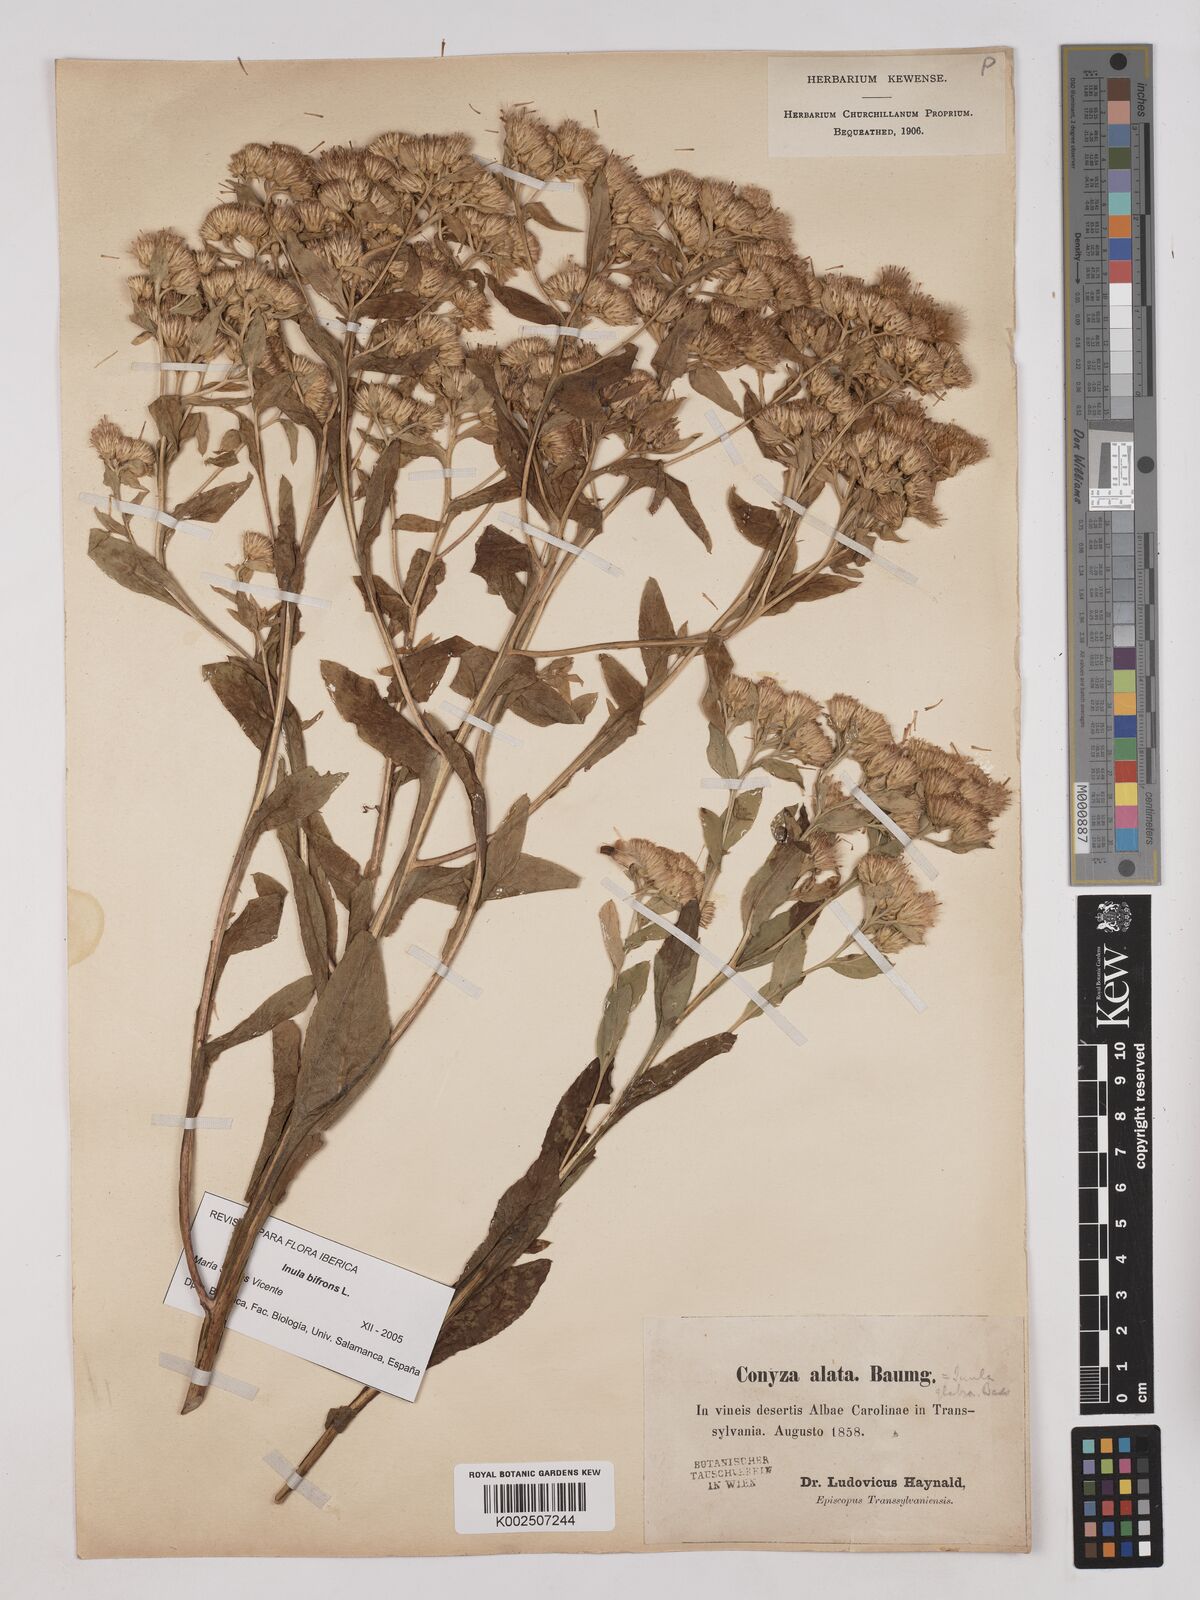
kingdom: Plantae
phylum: Tracheophyta
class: Magnoliopsida
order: Asterales
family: Asteraceae
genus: Pentanema
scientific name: Pentanema bifrons
